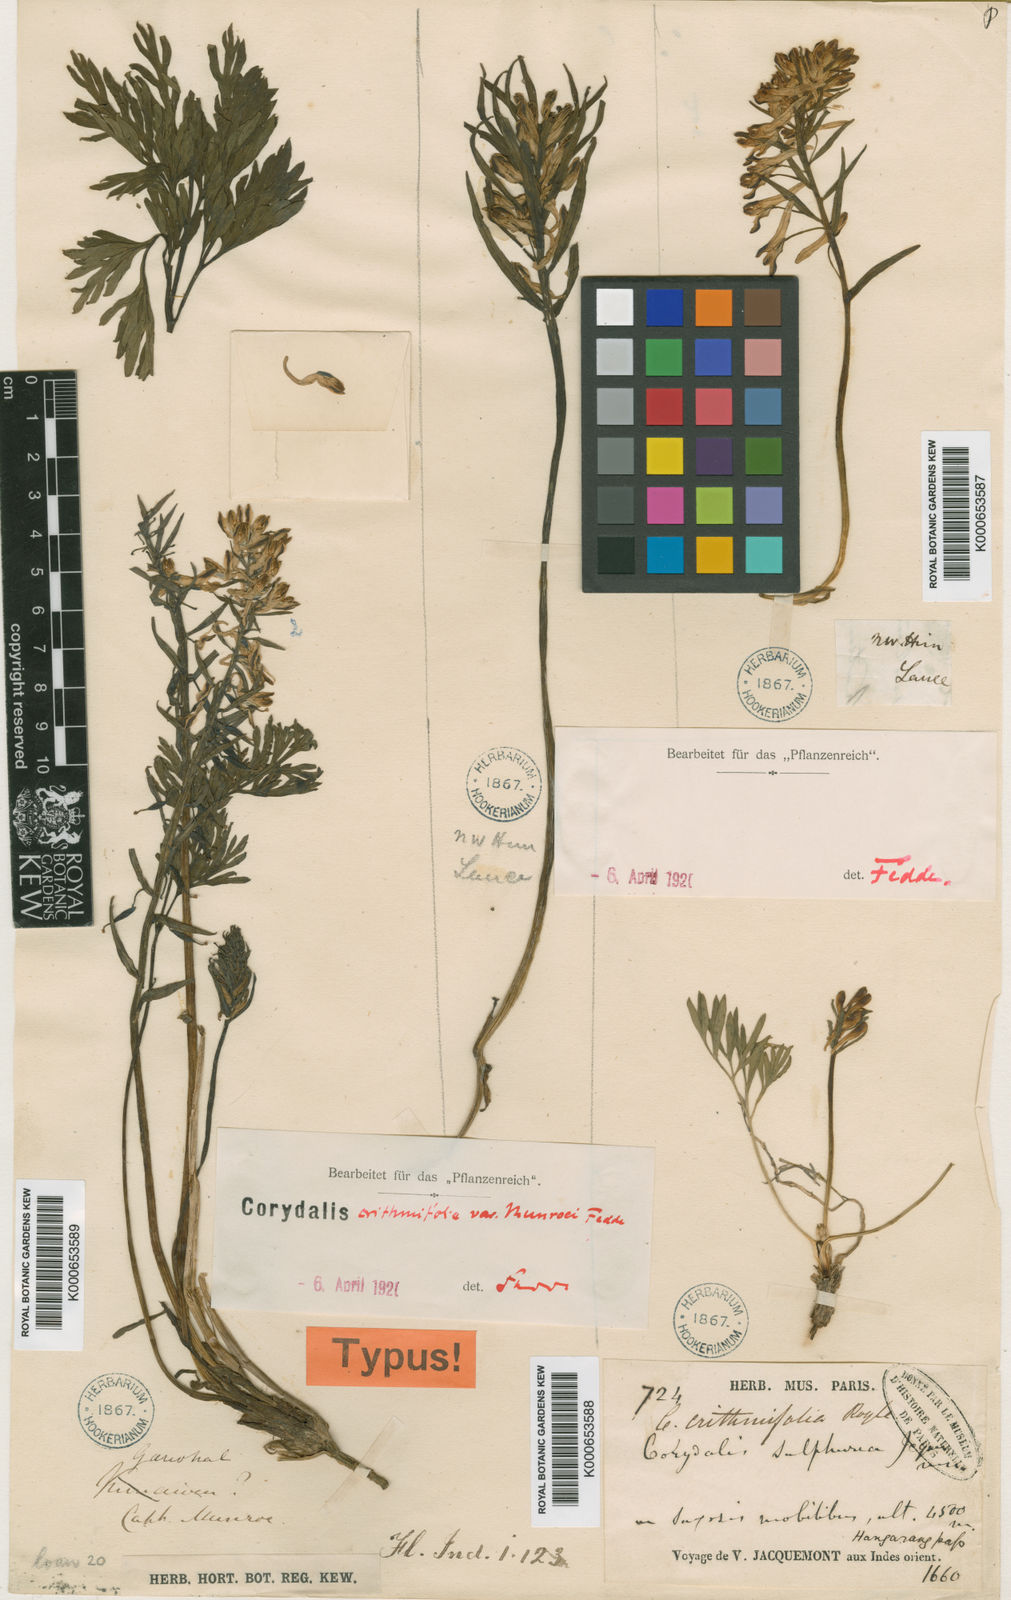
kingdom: Plantae
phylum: Tracheophyta
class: Magnoliopsida
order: Ranunculales
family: Papaveraceae
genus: Corydalis
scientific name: Corydalis crithmifolia
